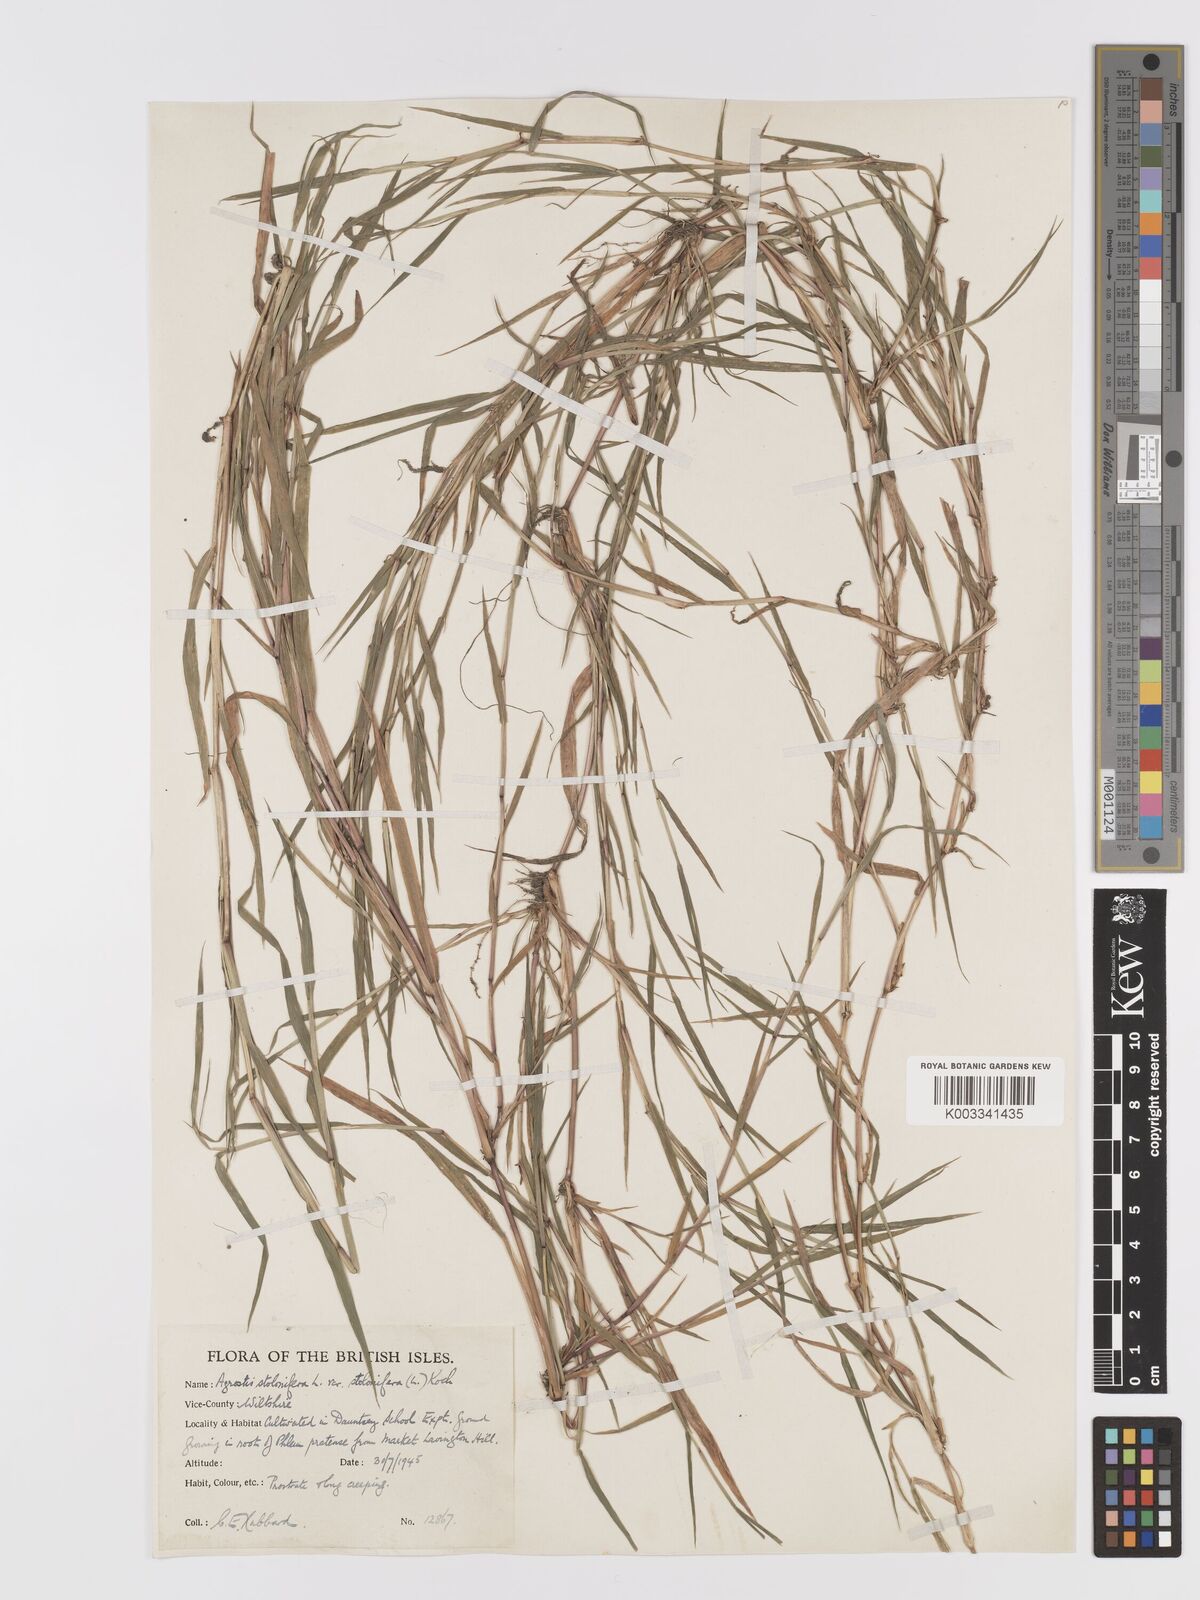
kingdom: Plantae
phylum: Tracheophyta
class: Liliopsida
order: Poales
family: Poaceae
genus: Agrostis
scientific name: Agrostis stolonifera
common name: Creeping bentgrass
